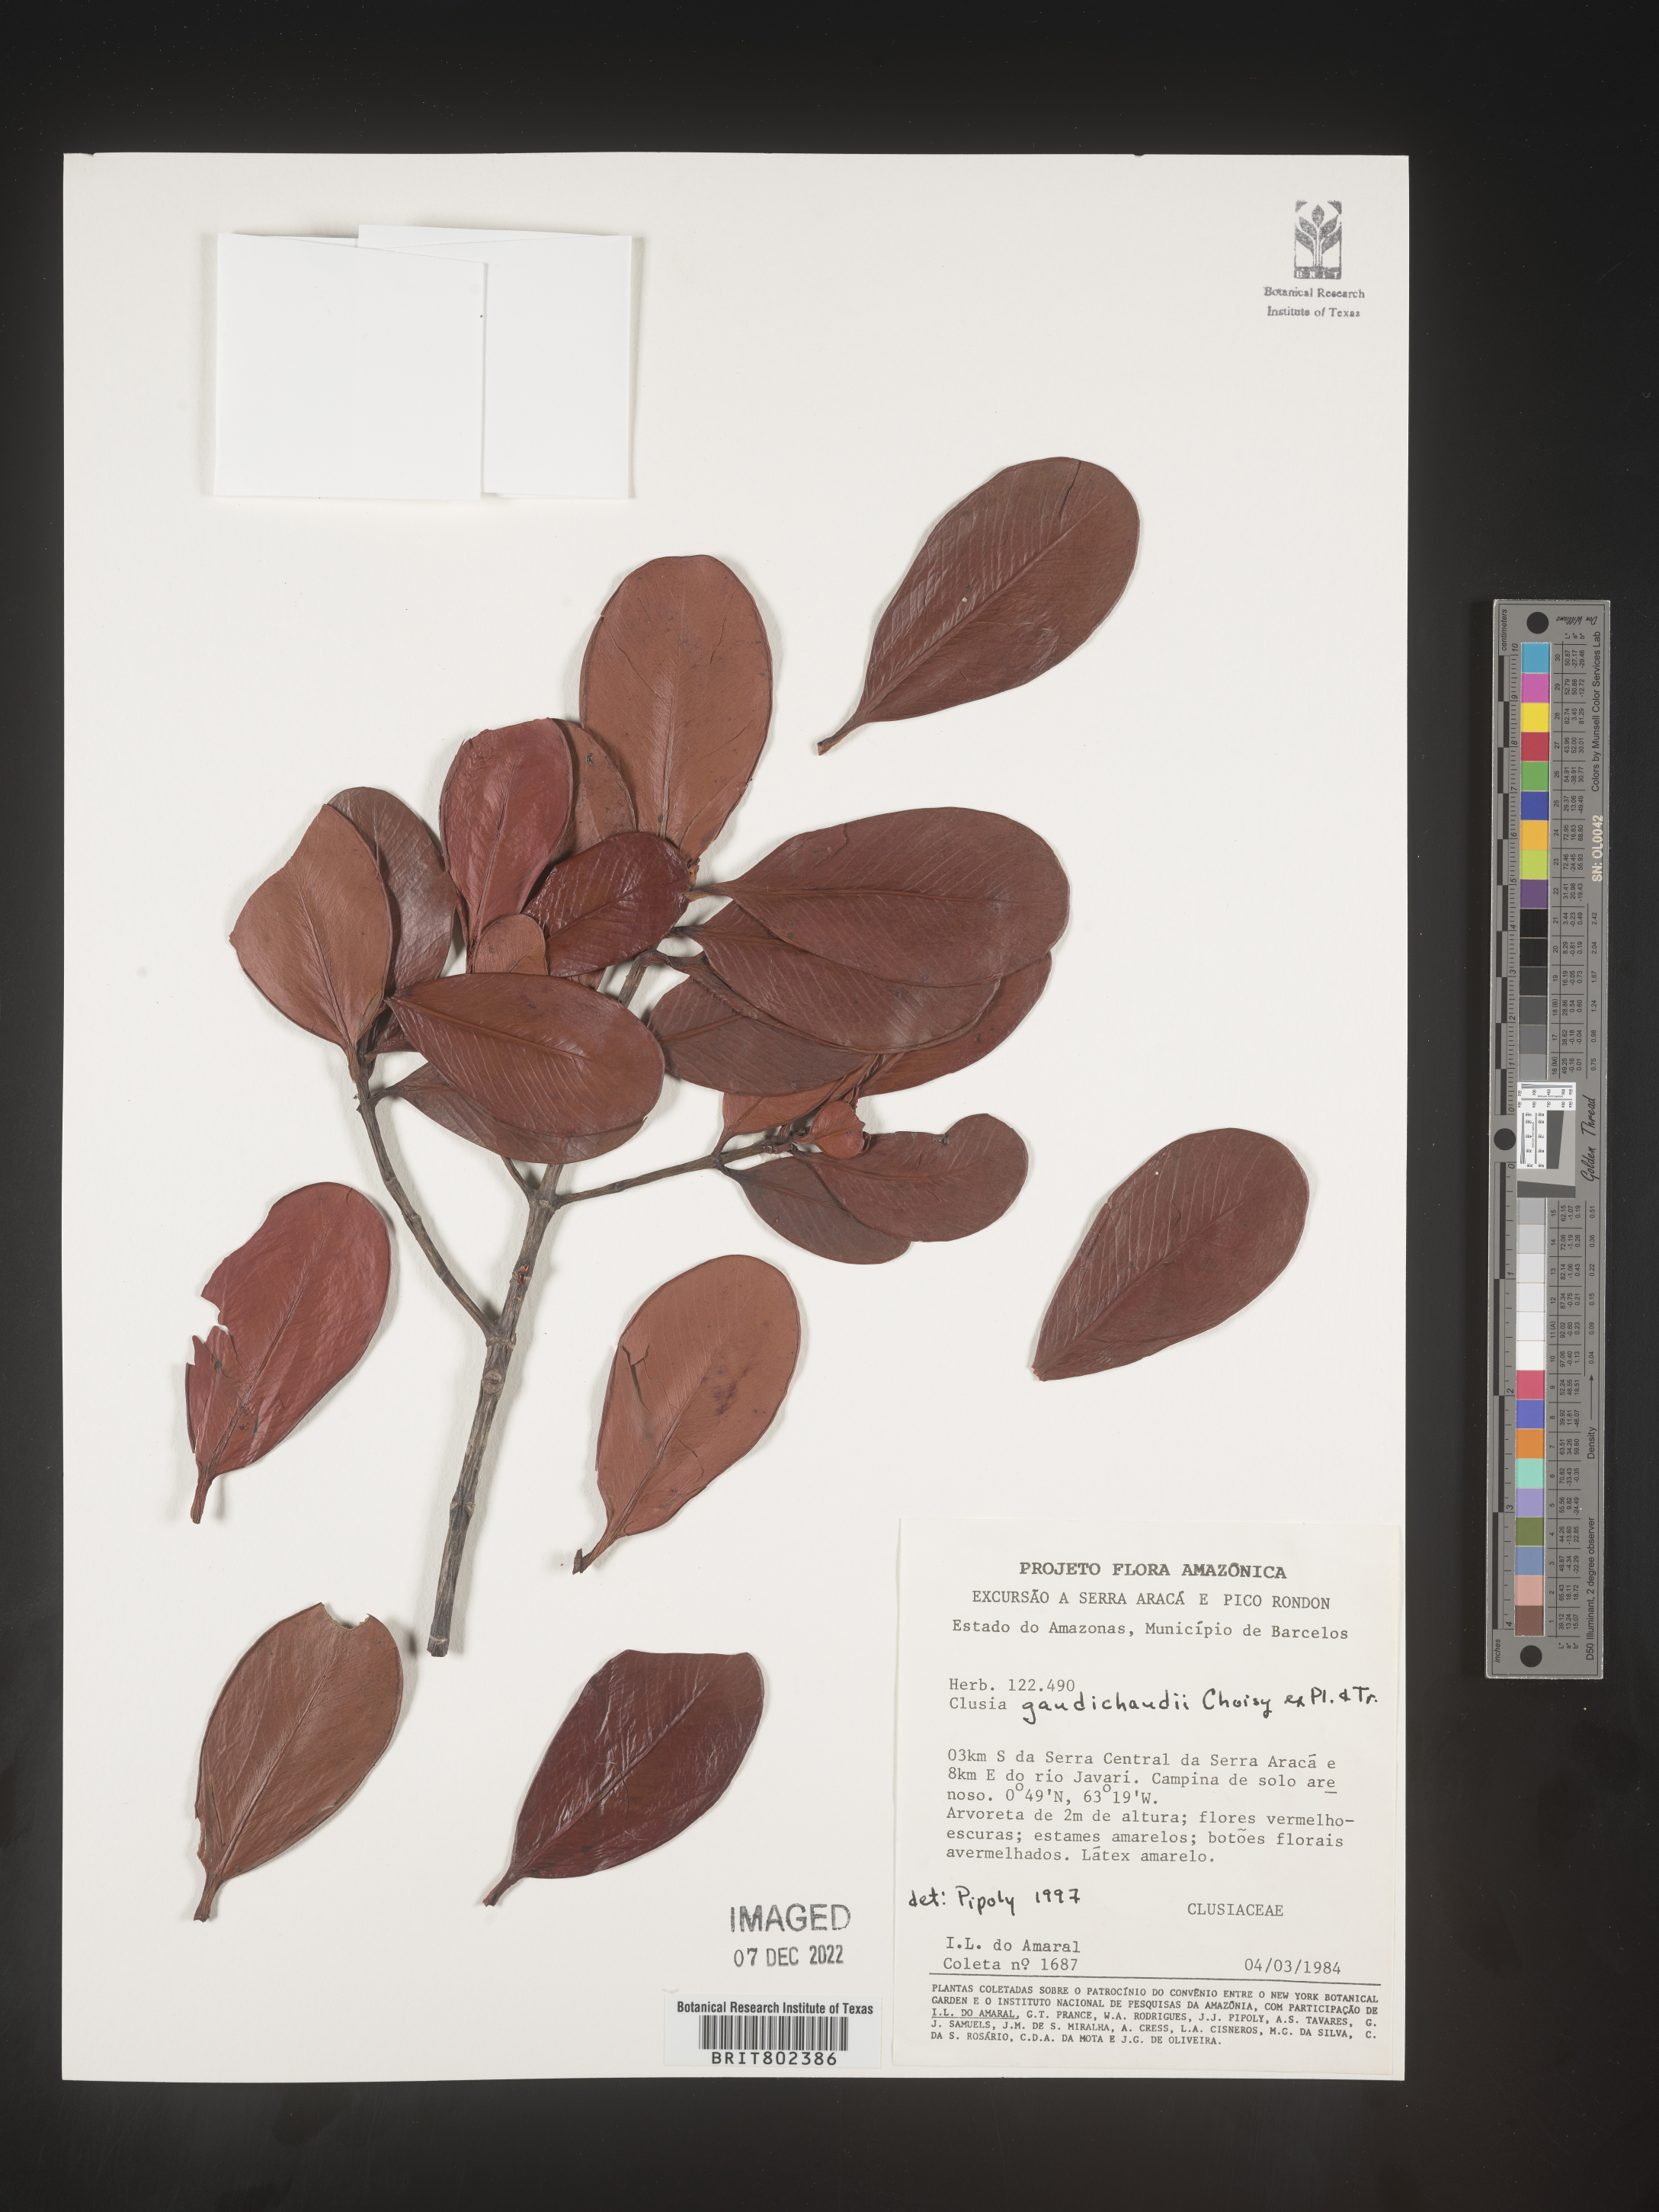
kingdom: Plantae
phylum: Tracheophyta
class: Magnoliopsida
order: Malpighiales
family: Clusiaceae
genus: Clusia
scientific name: Clusia
